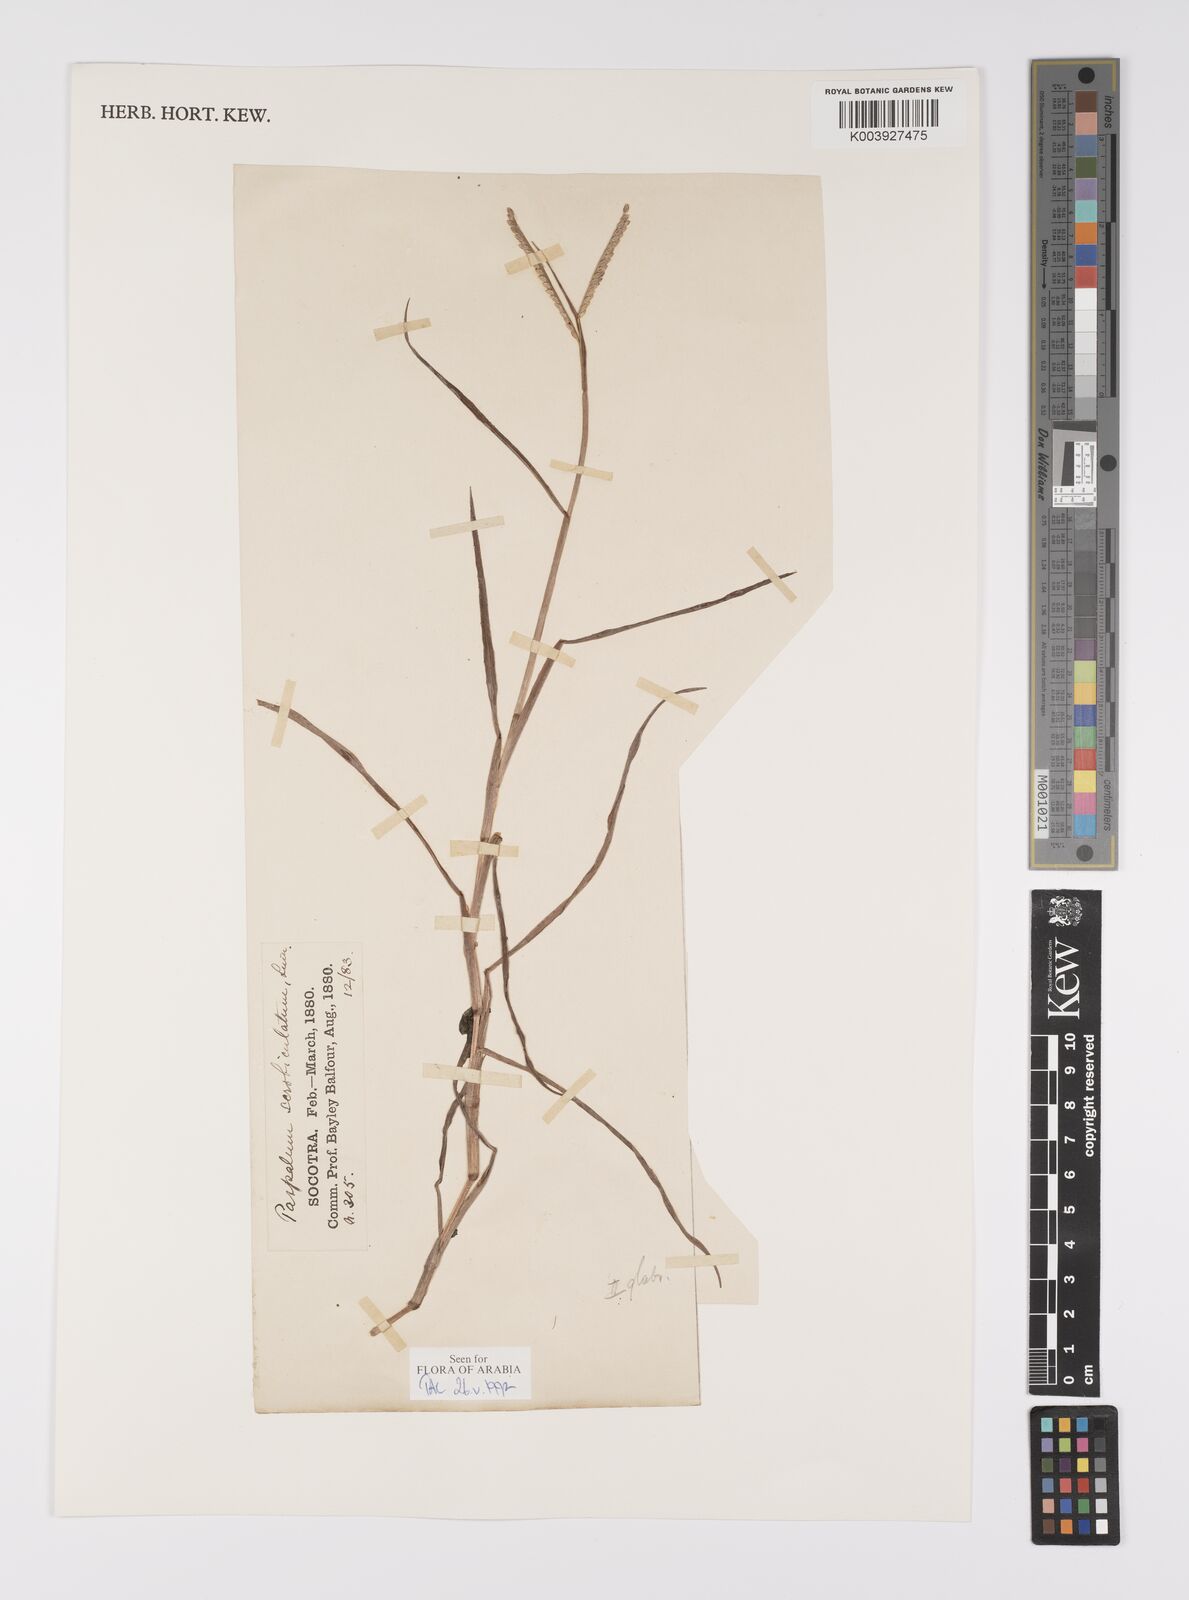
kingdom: Plantae
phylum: Tracheophyta
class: Liliopsida
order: Poales
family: Poaceae
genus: Paspalum
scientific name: Paspalum scrobiculatum
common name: Kodo millet
